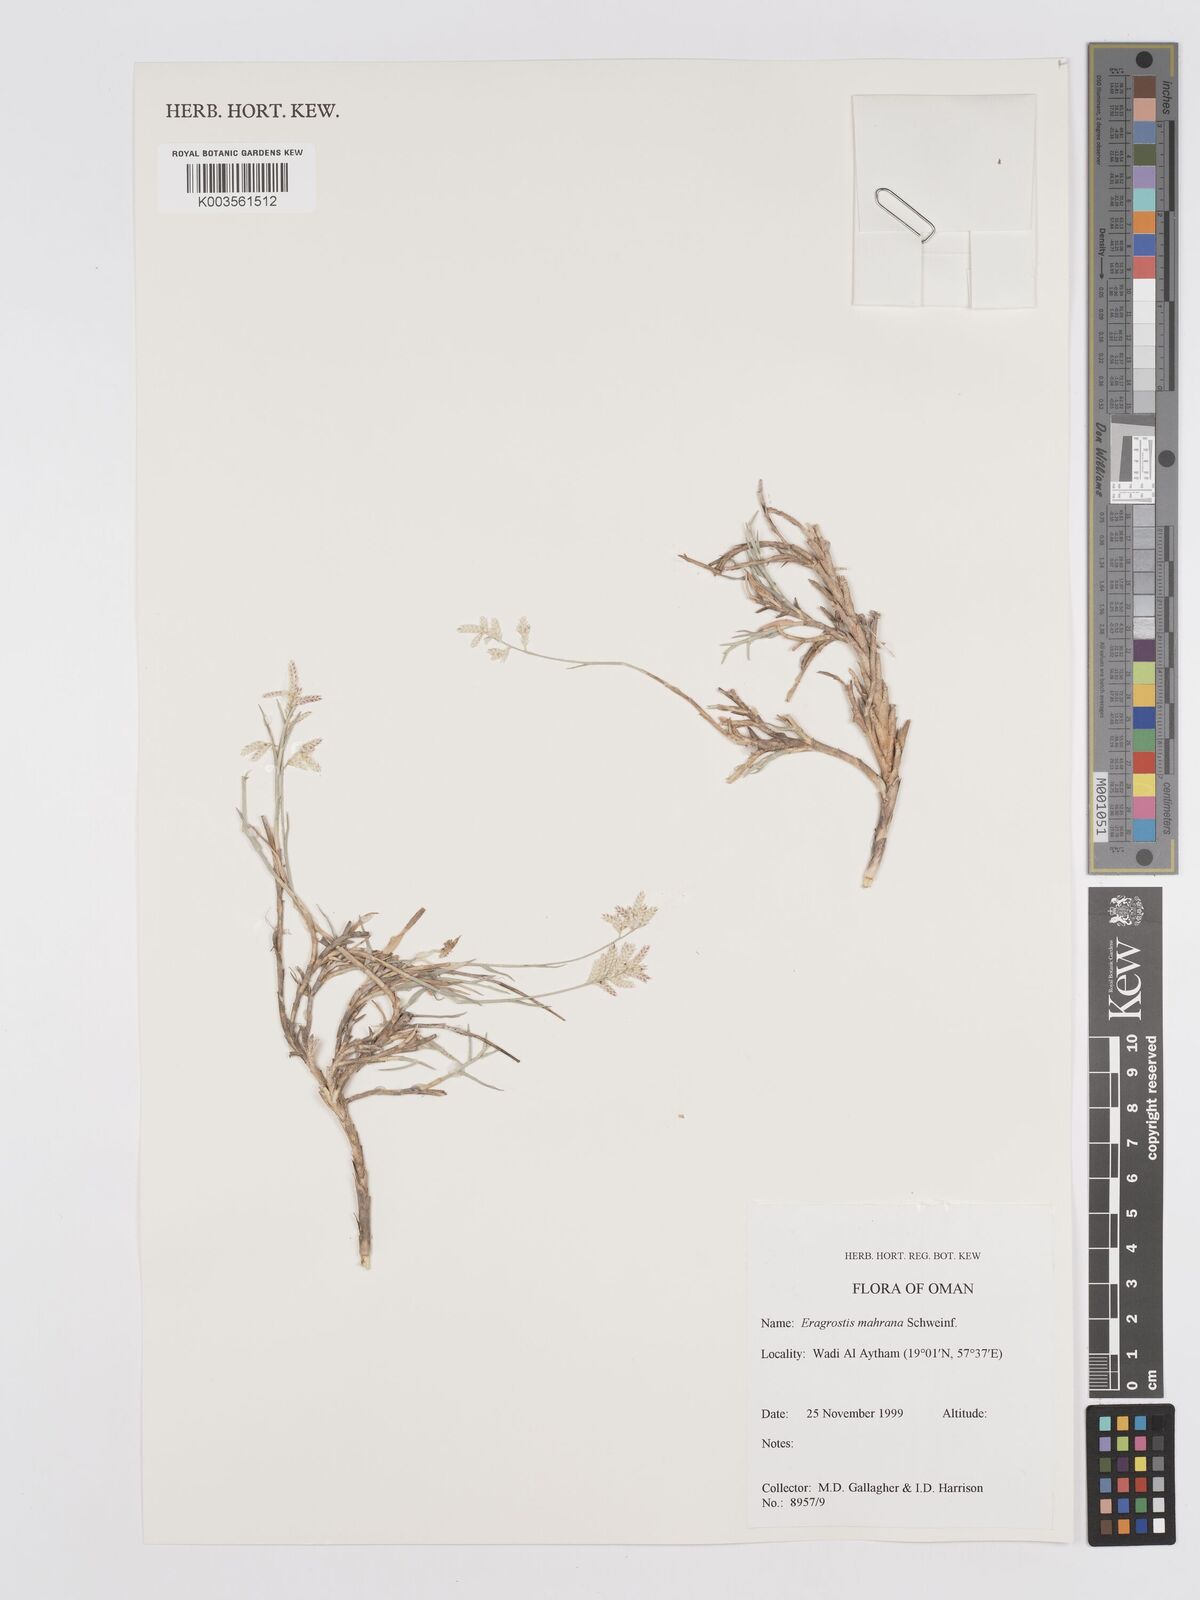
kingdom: Plantae
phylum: Tracheophyta
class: Liliopsida
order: Poales
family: Poaceae
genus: Eragrostis
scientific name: Eragrostis mahrana
